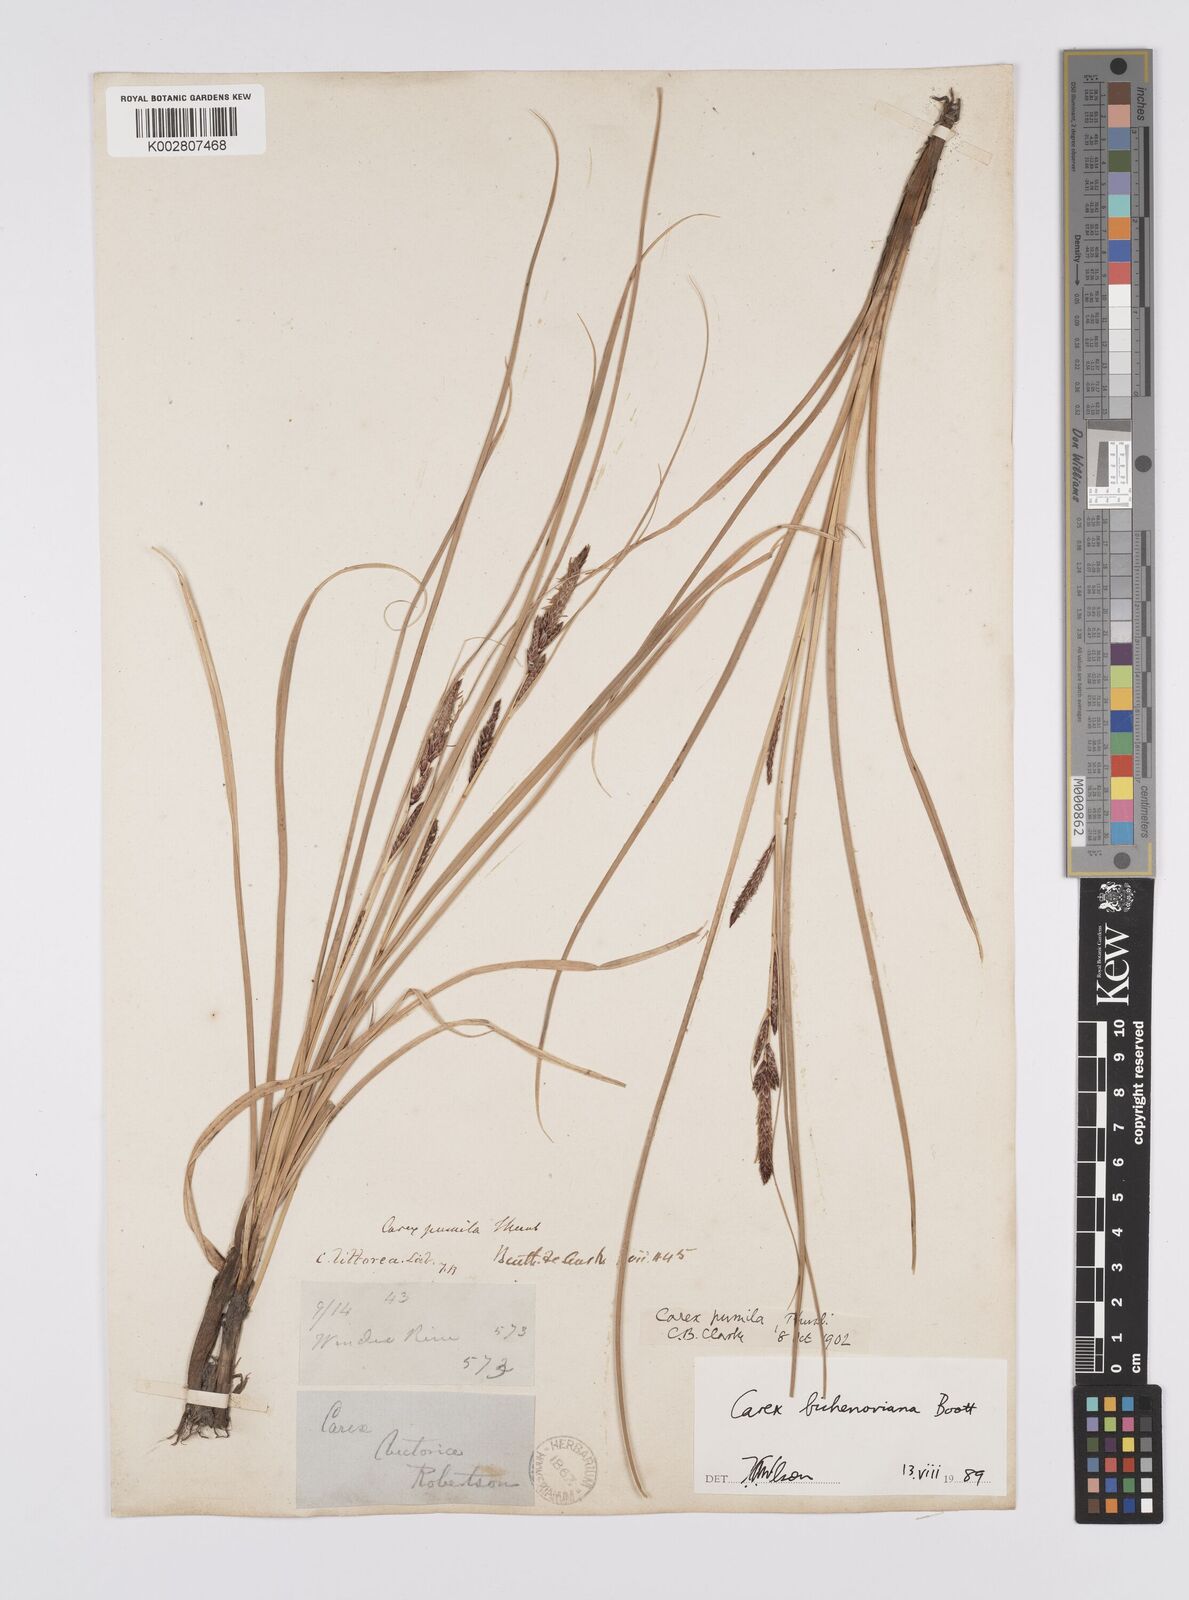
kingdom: Plantae
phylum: Tracheophyta
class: Liliopsida
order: Poales
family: Cyperaceae
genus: Carex
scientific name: Carex bichenoviana
